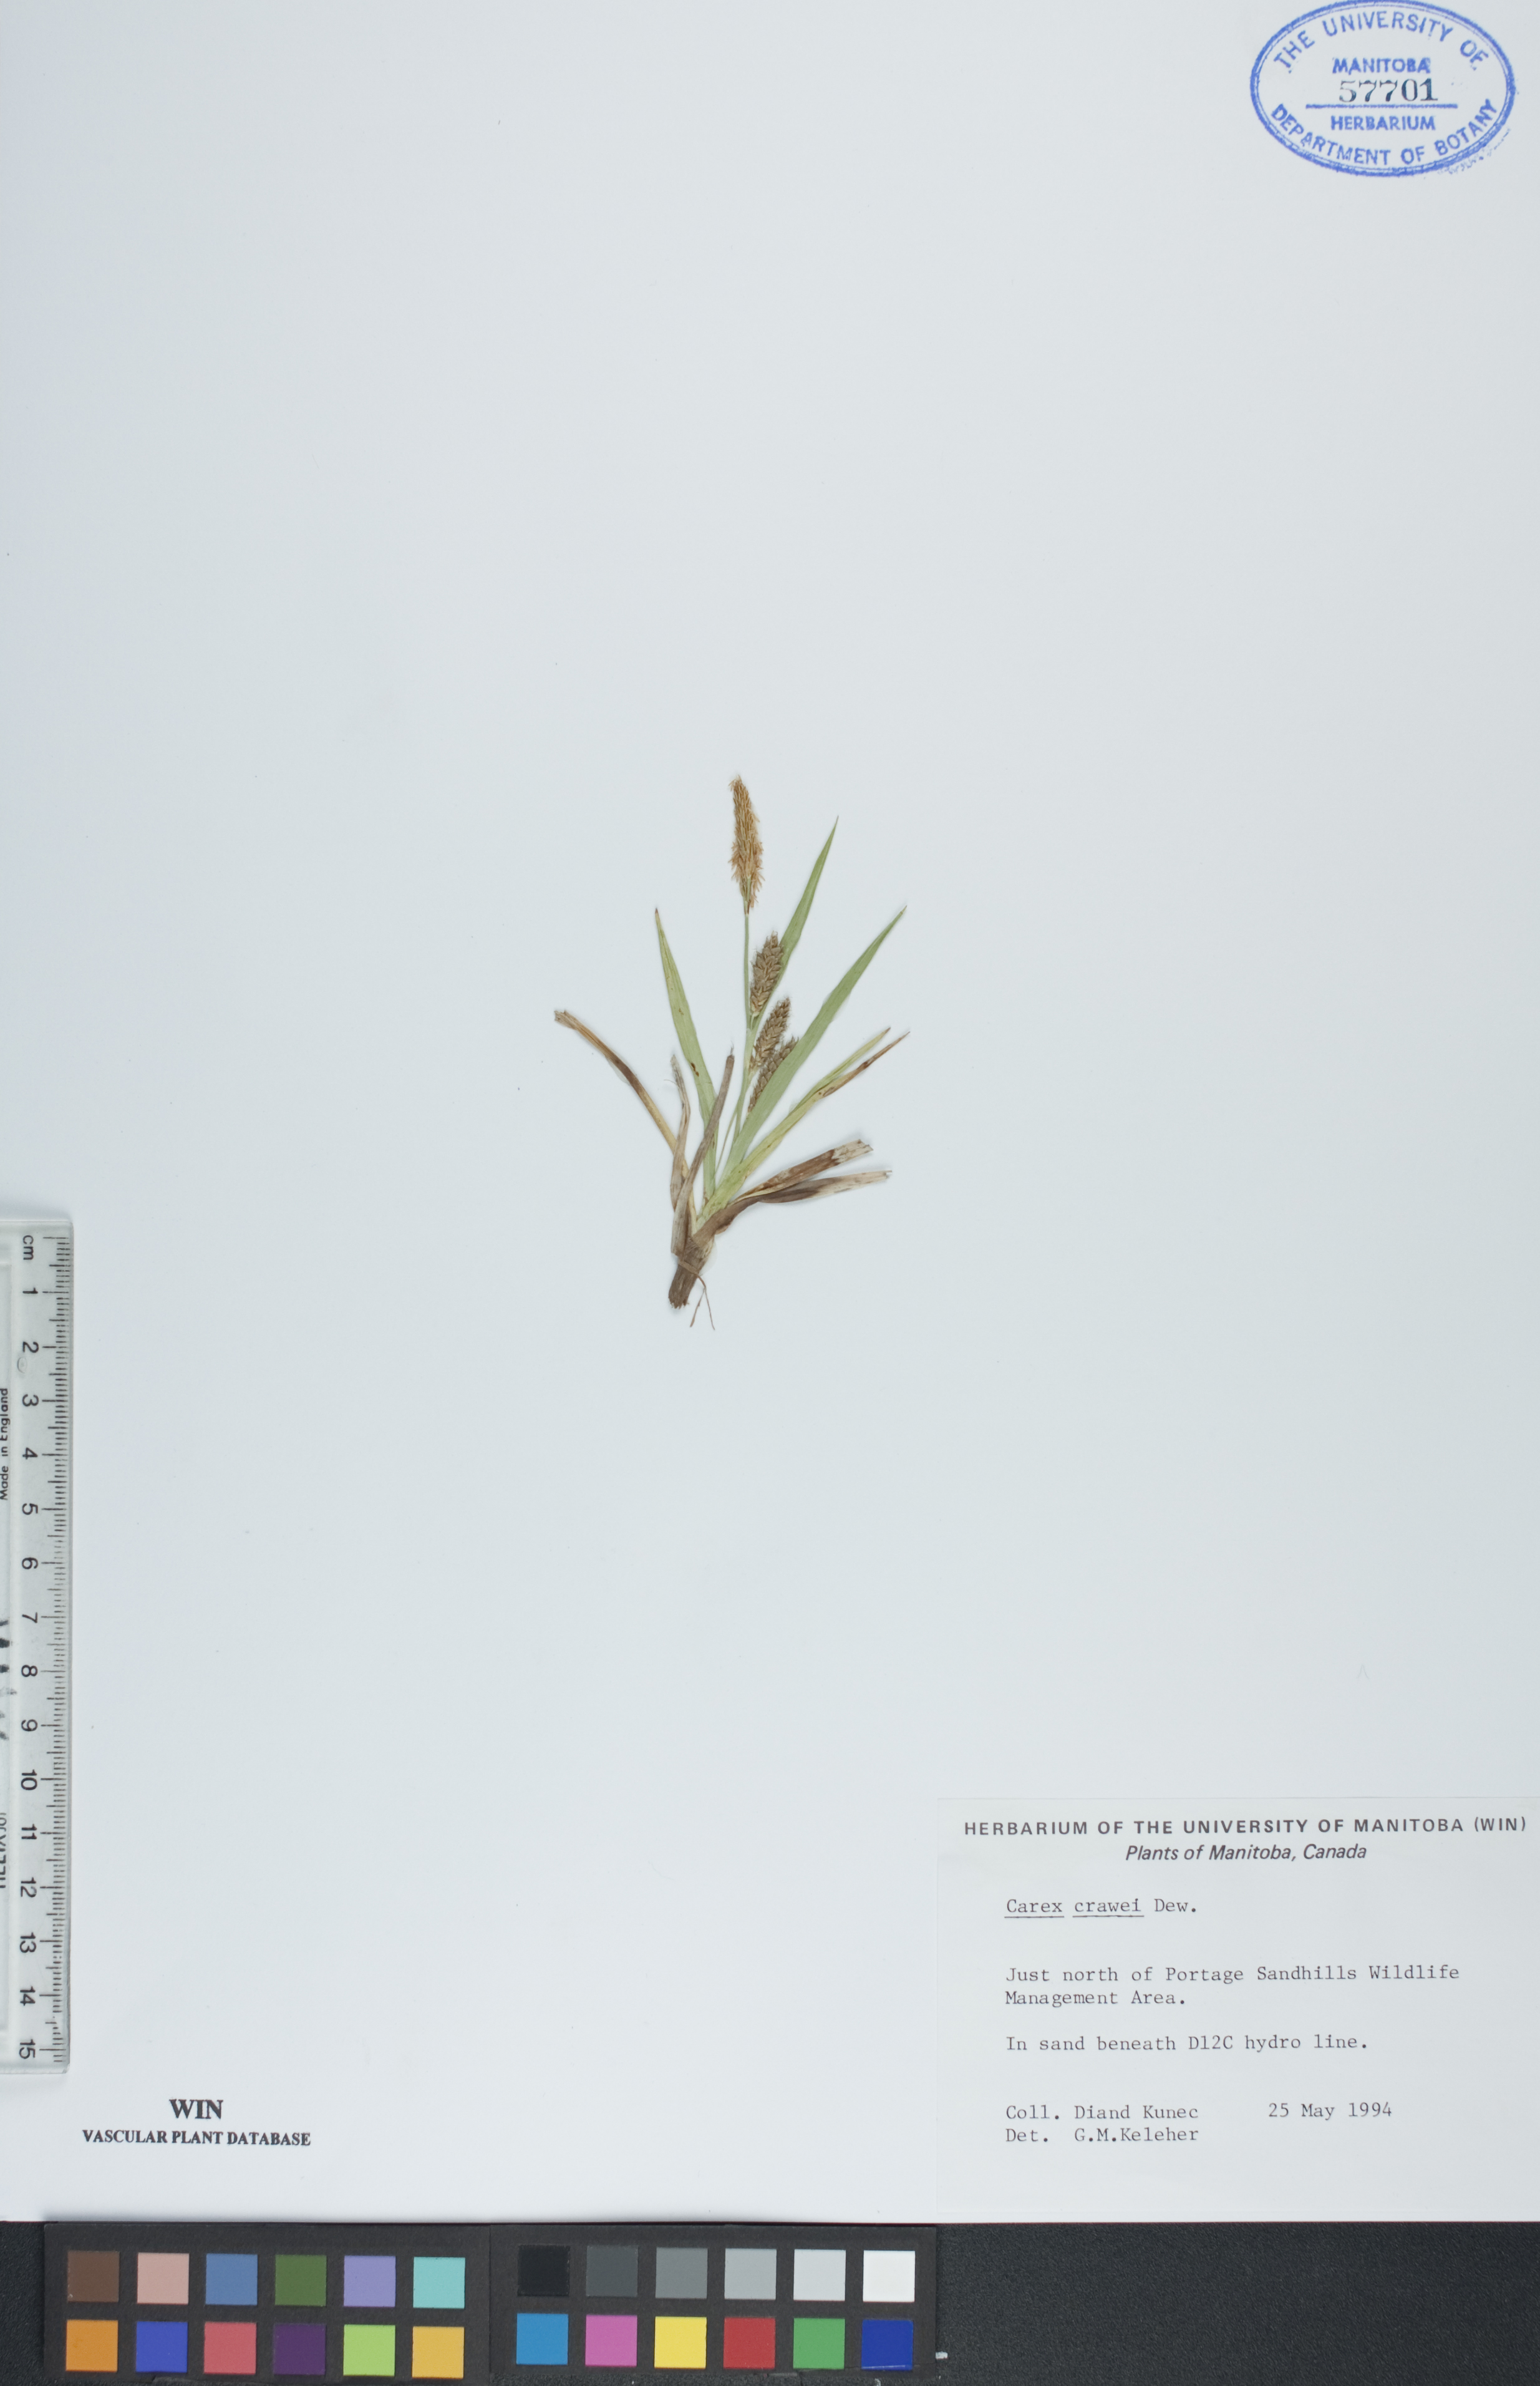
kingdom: Plantae
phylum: Tracheophyta
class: Liliopsida
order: Poales
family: Cyperaceae
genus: Carex
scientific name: Carex crawei
